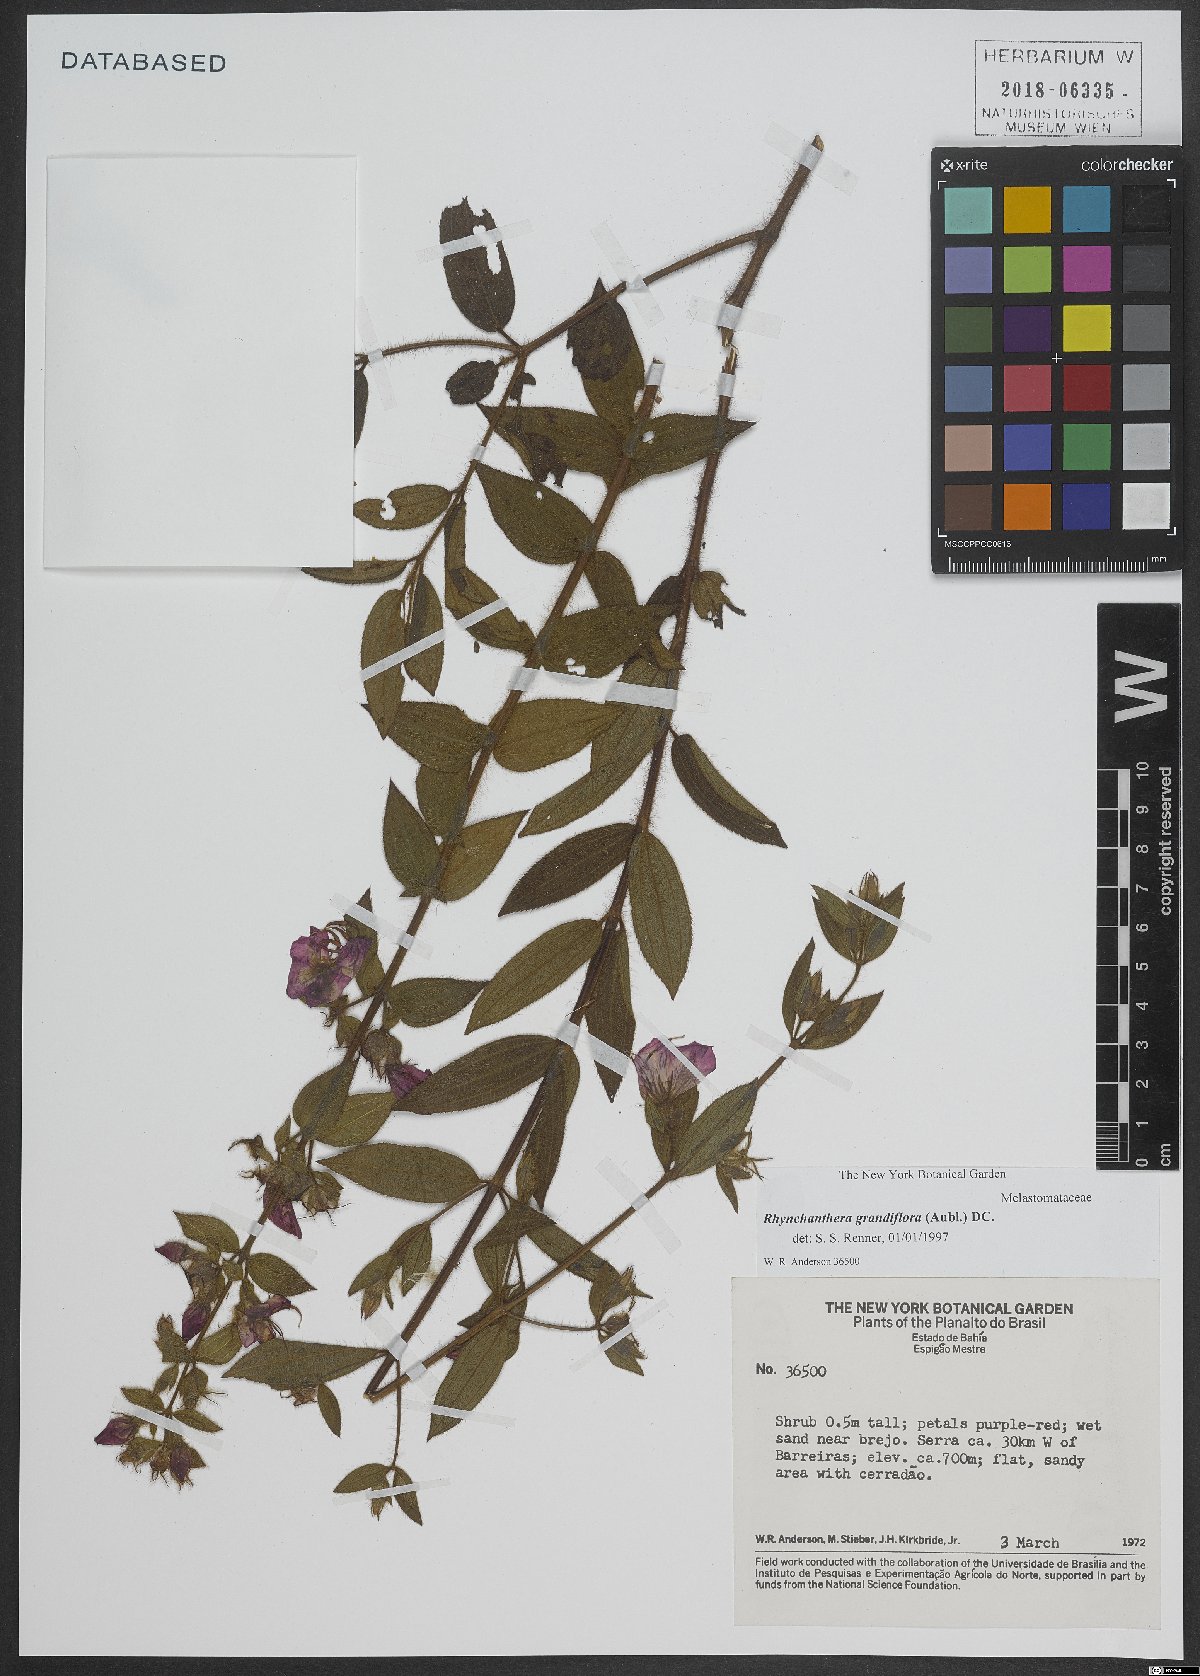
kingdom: Plantae
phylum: Tracheophyta
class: Magnoliopsida
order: Myrtales
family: Melastomataceae
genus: Rhynchanthera
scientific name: Rhynchanthera grandiflora
